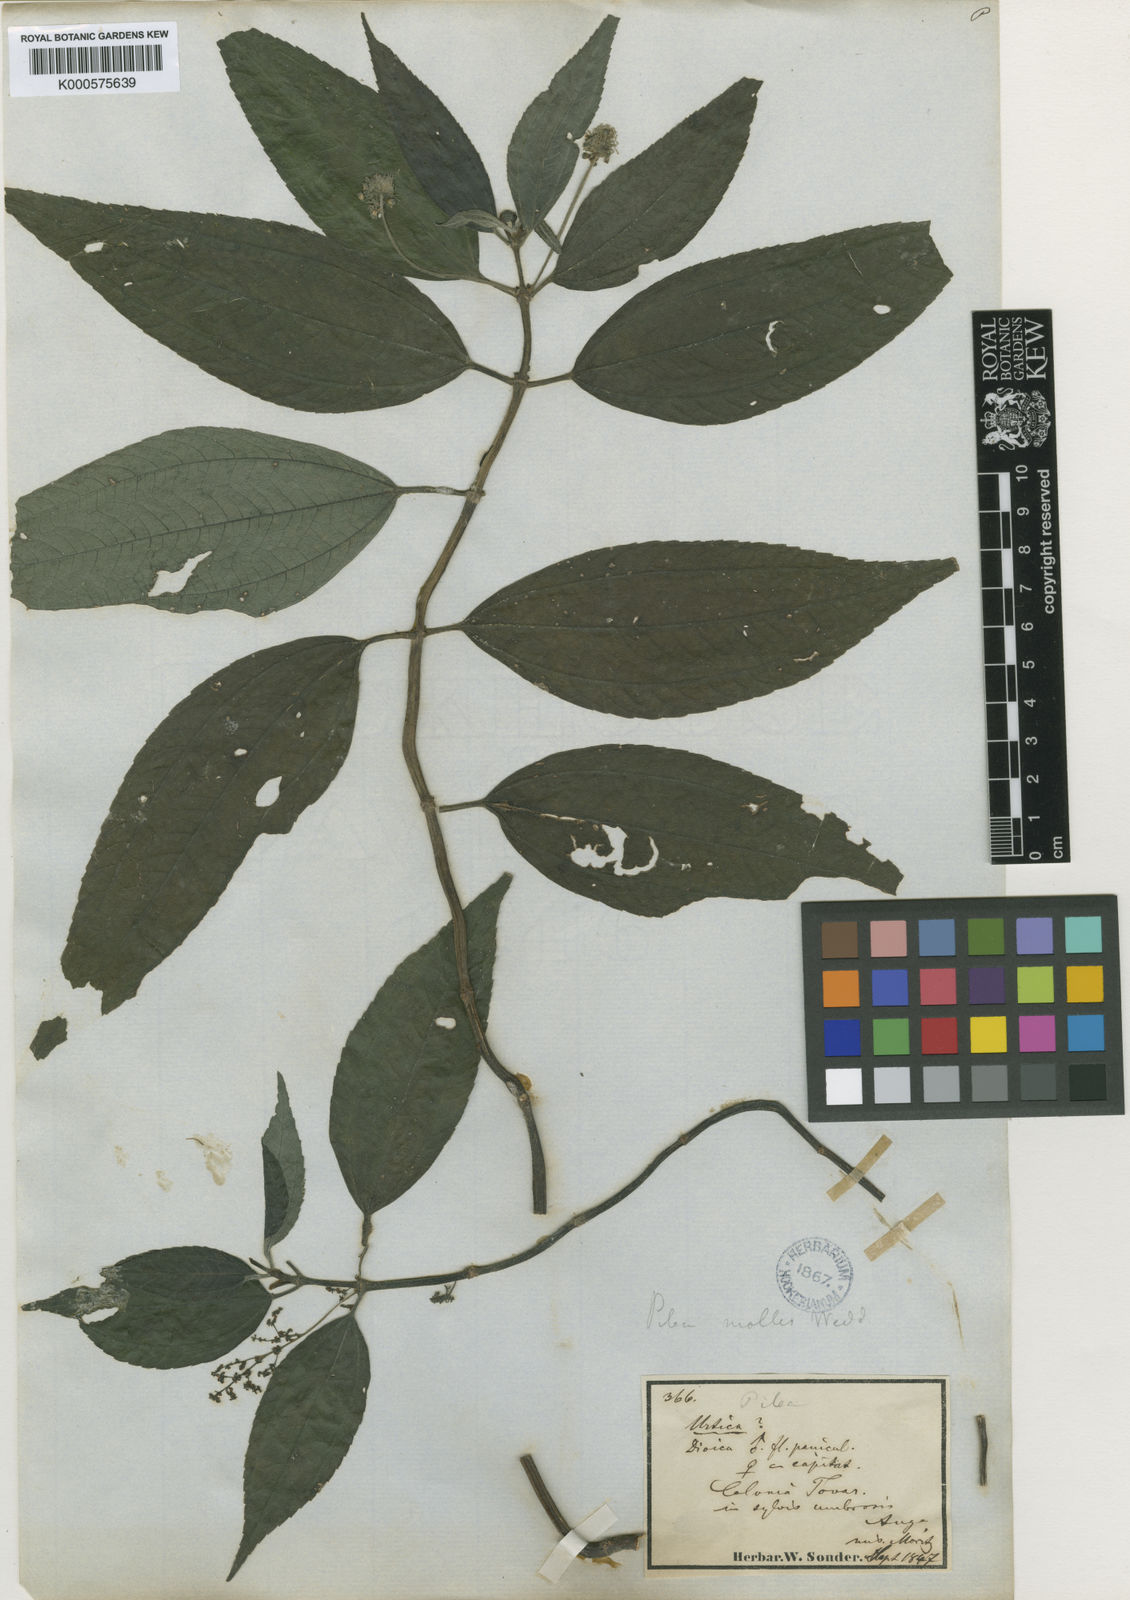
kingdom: Plantae
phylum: Tracheophyta
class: Magnoliopsida
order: Rosales
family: Urticaceae
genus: Pilea
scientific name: Pilea mollis
